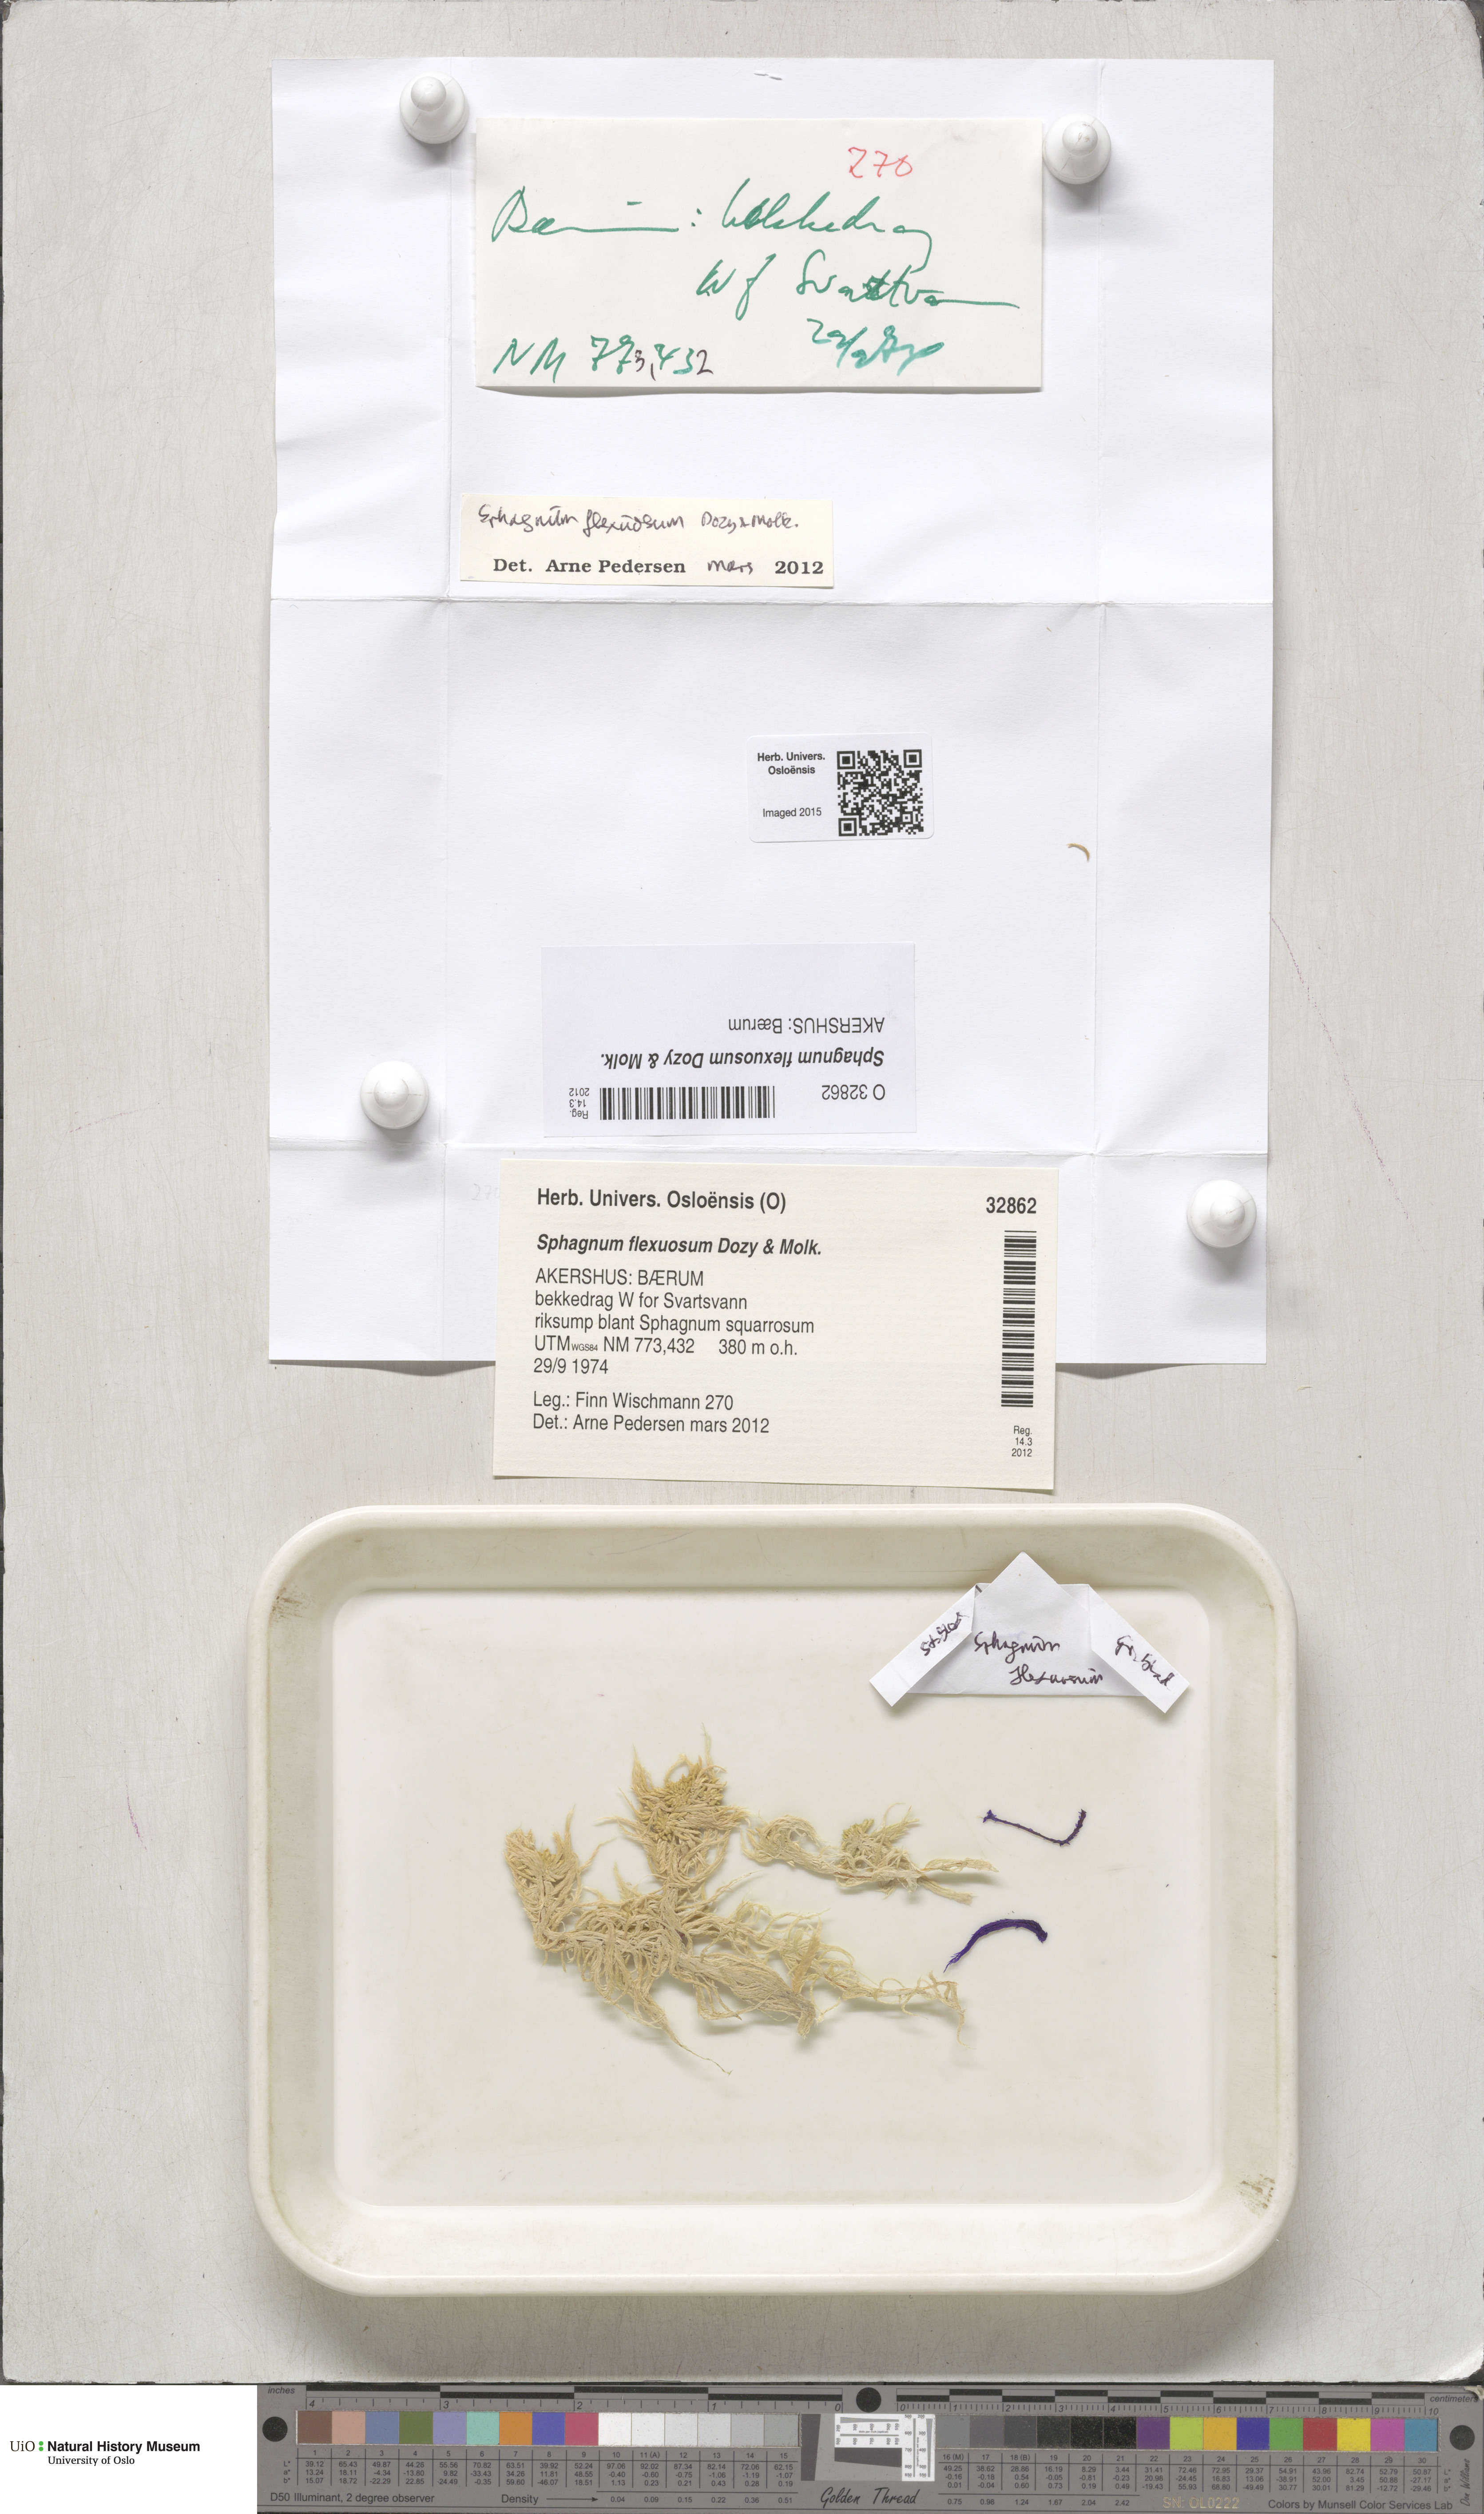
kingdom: Plantae
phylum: Bryophyta
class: Sphagnopsida
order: Sphagnales
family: Sphagnaceae
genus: Sphagnum
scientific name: Sphagnum flexuosum
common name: Flexible peat moss
